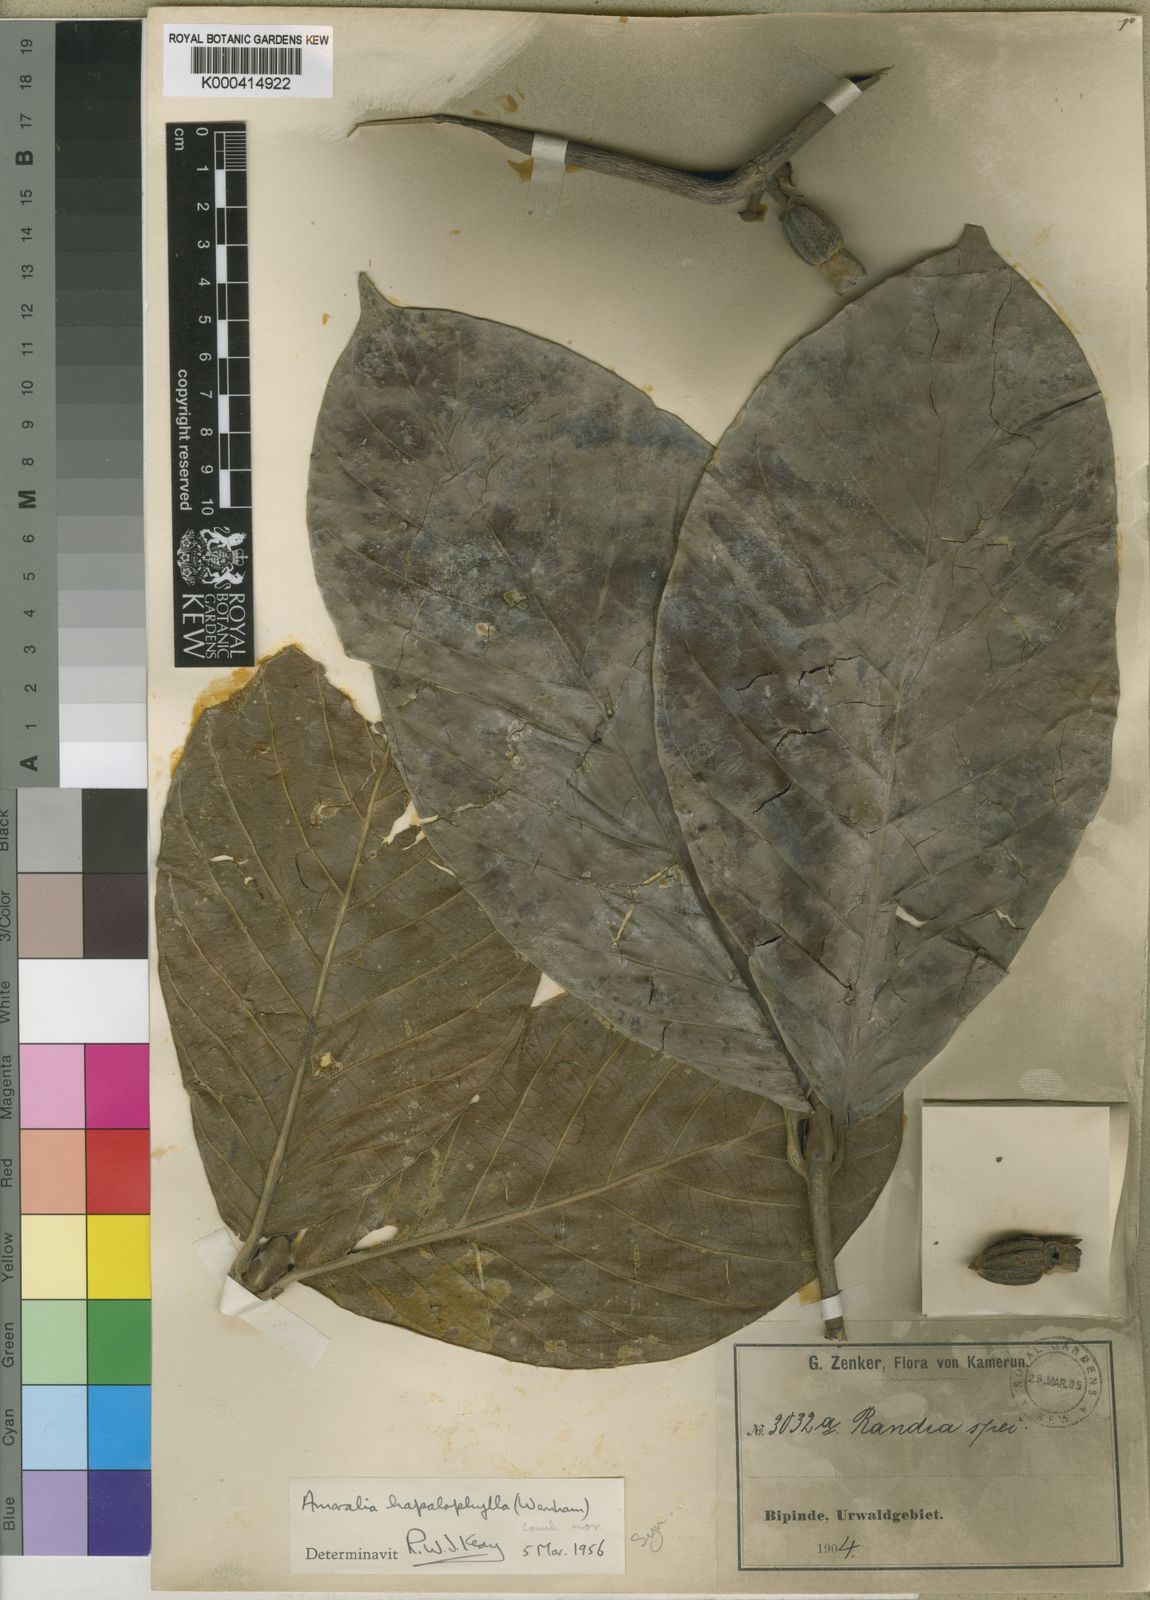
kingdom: Plantae
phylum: Tracheophyta
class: Magnoliopsida
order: Gentianales
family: Rubiaceae
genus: Sherbournia
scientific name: Sherbournia hapalophylla
